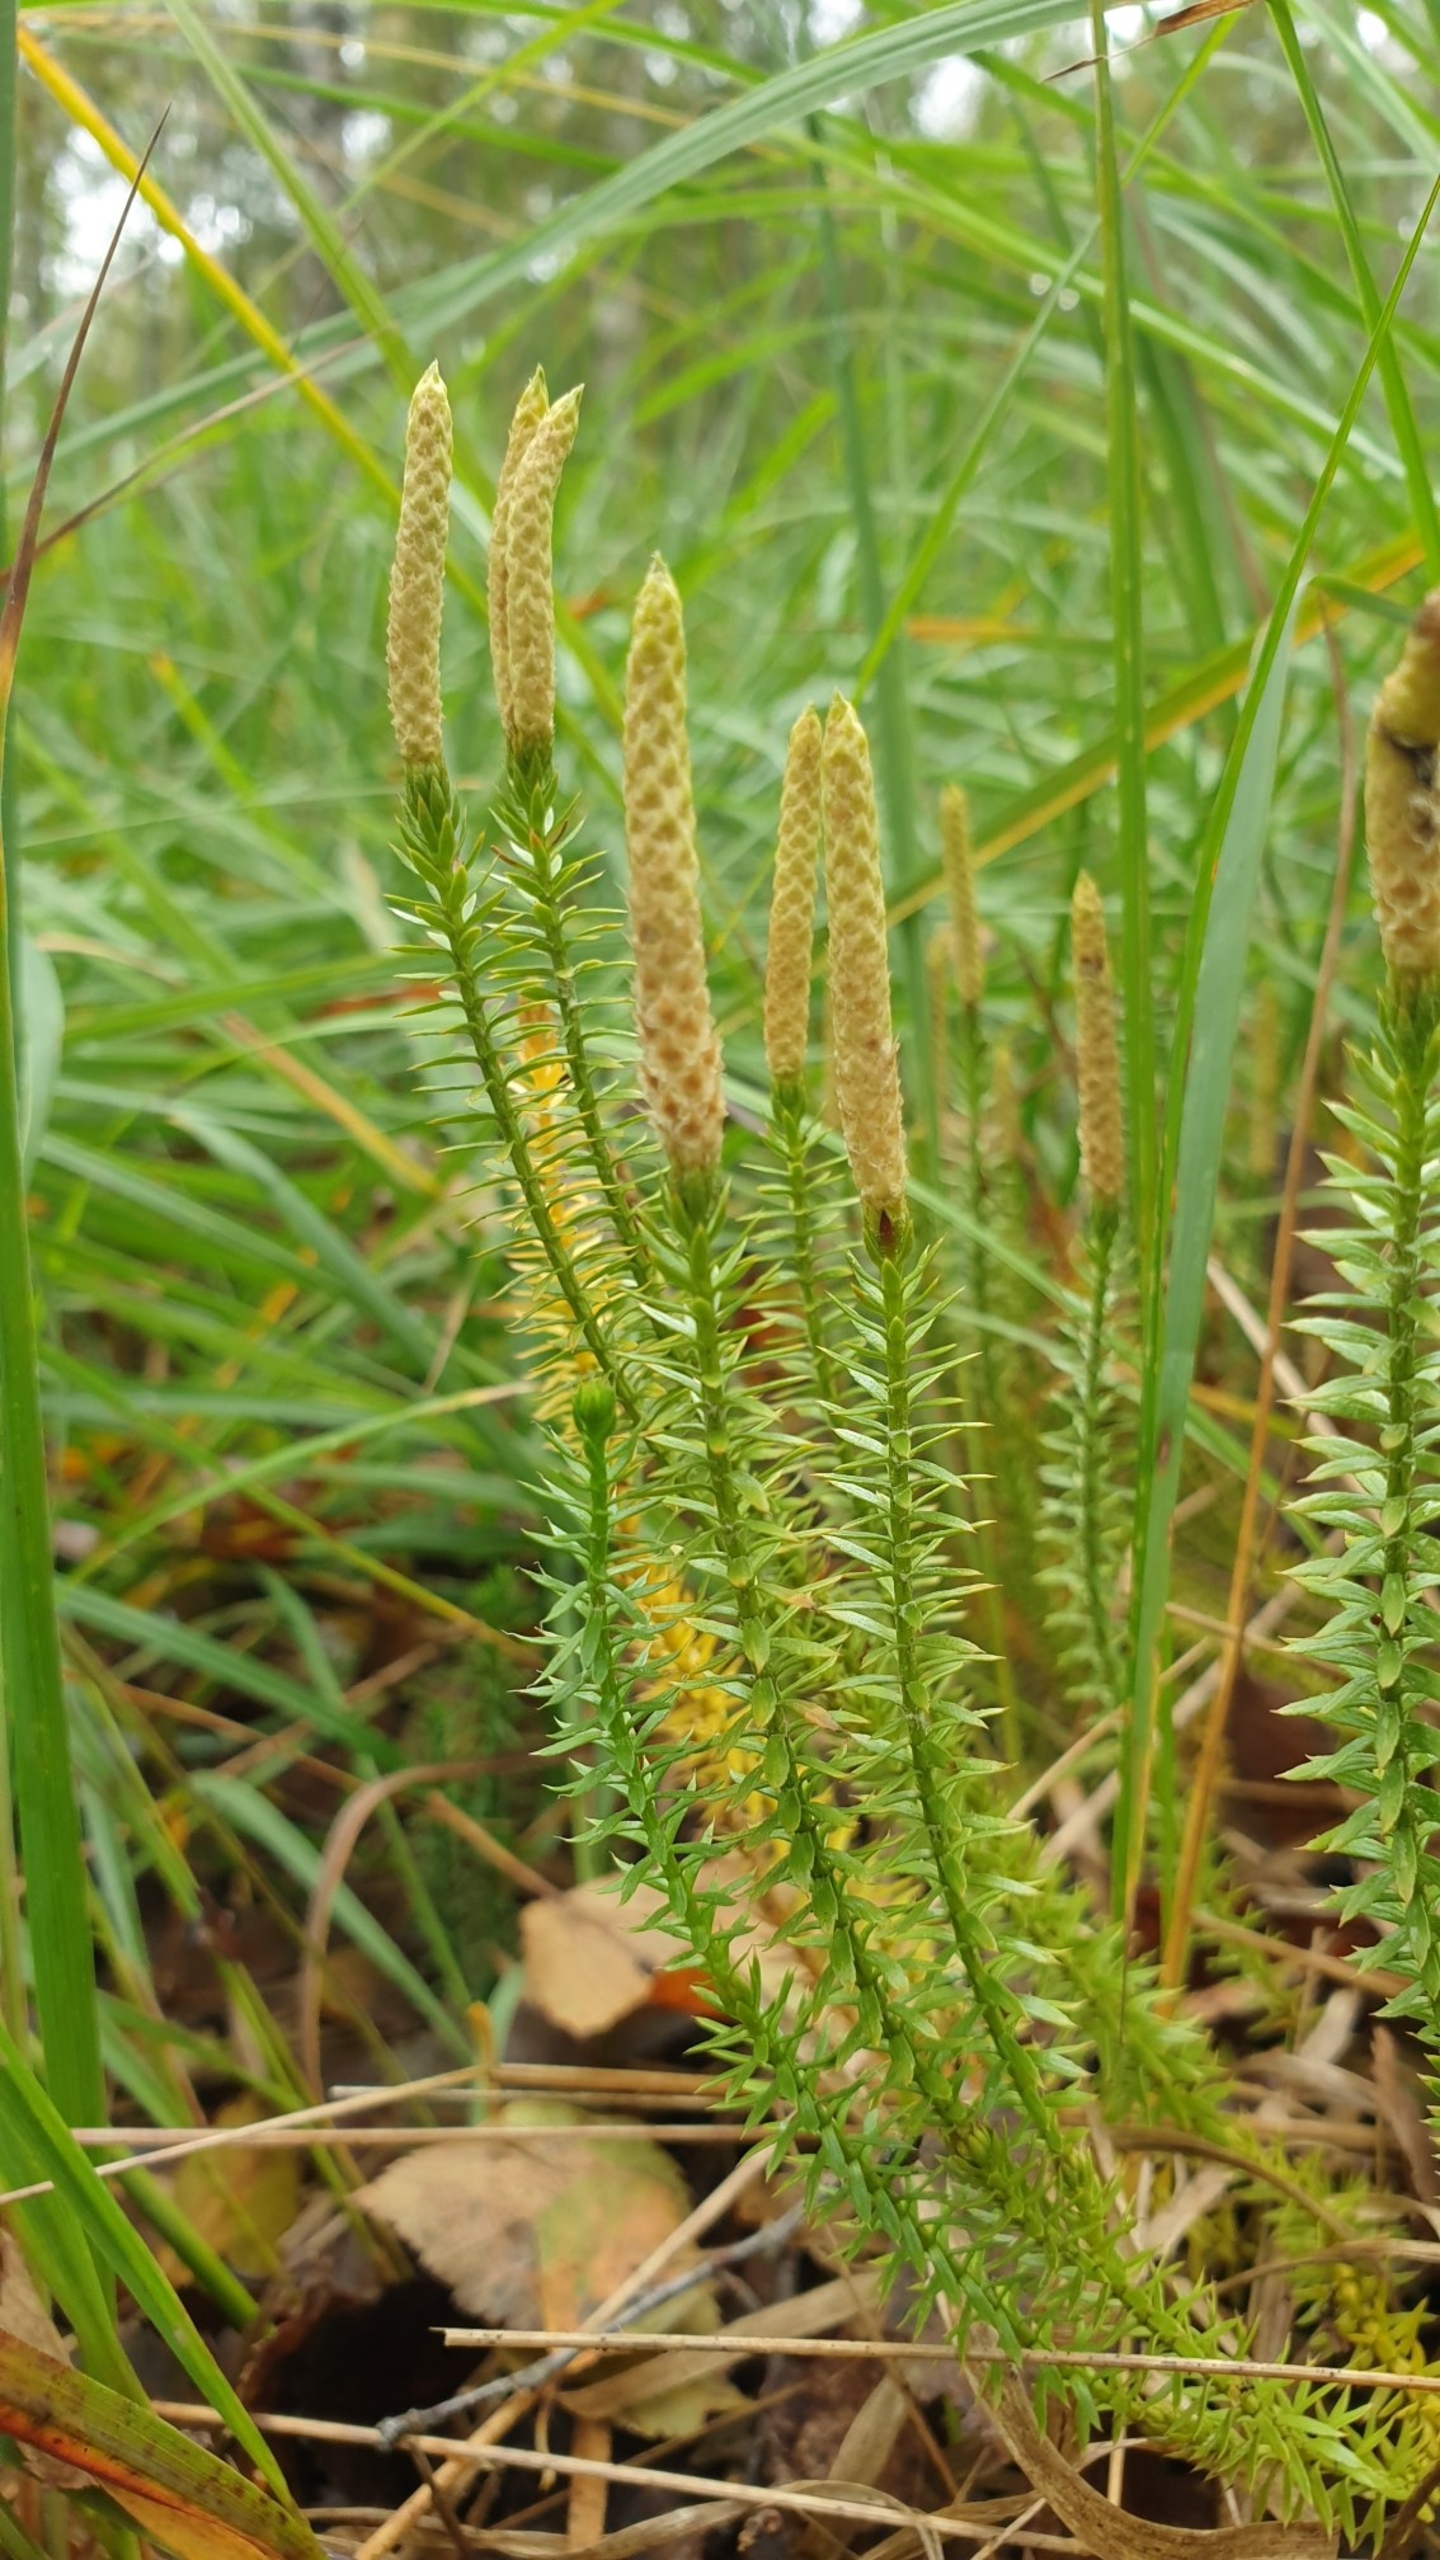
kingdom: Plantae
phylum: Tracheophyta
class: Lycopodiopsida
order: Lycopodiales
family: Lycopodiaceae
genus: Spinulum
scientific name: Spinulum annotinum
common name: Femradet ulvefod
